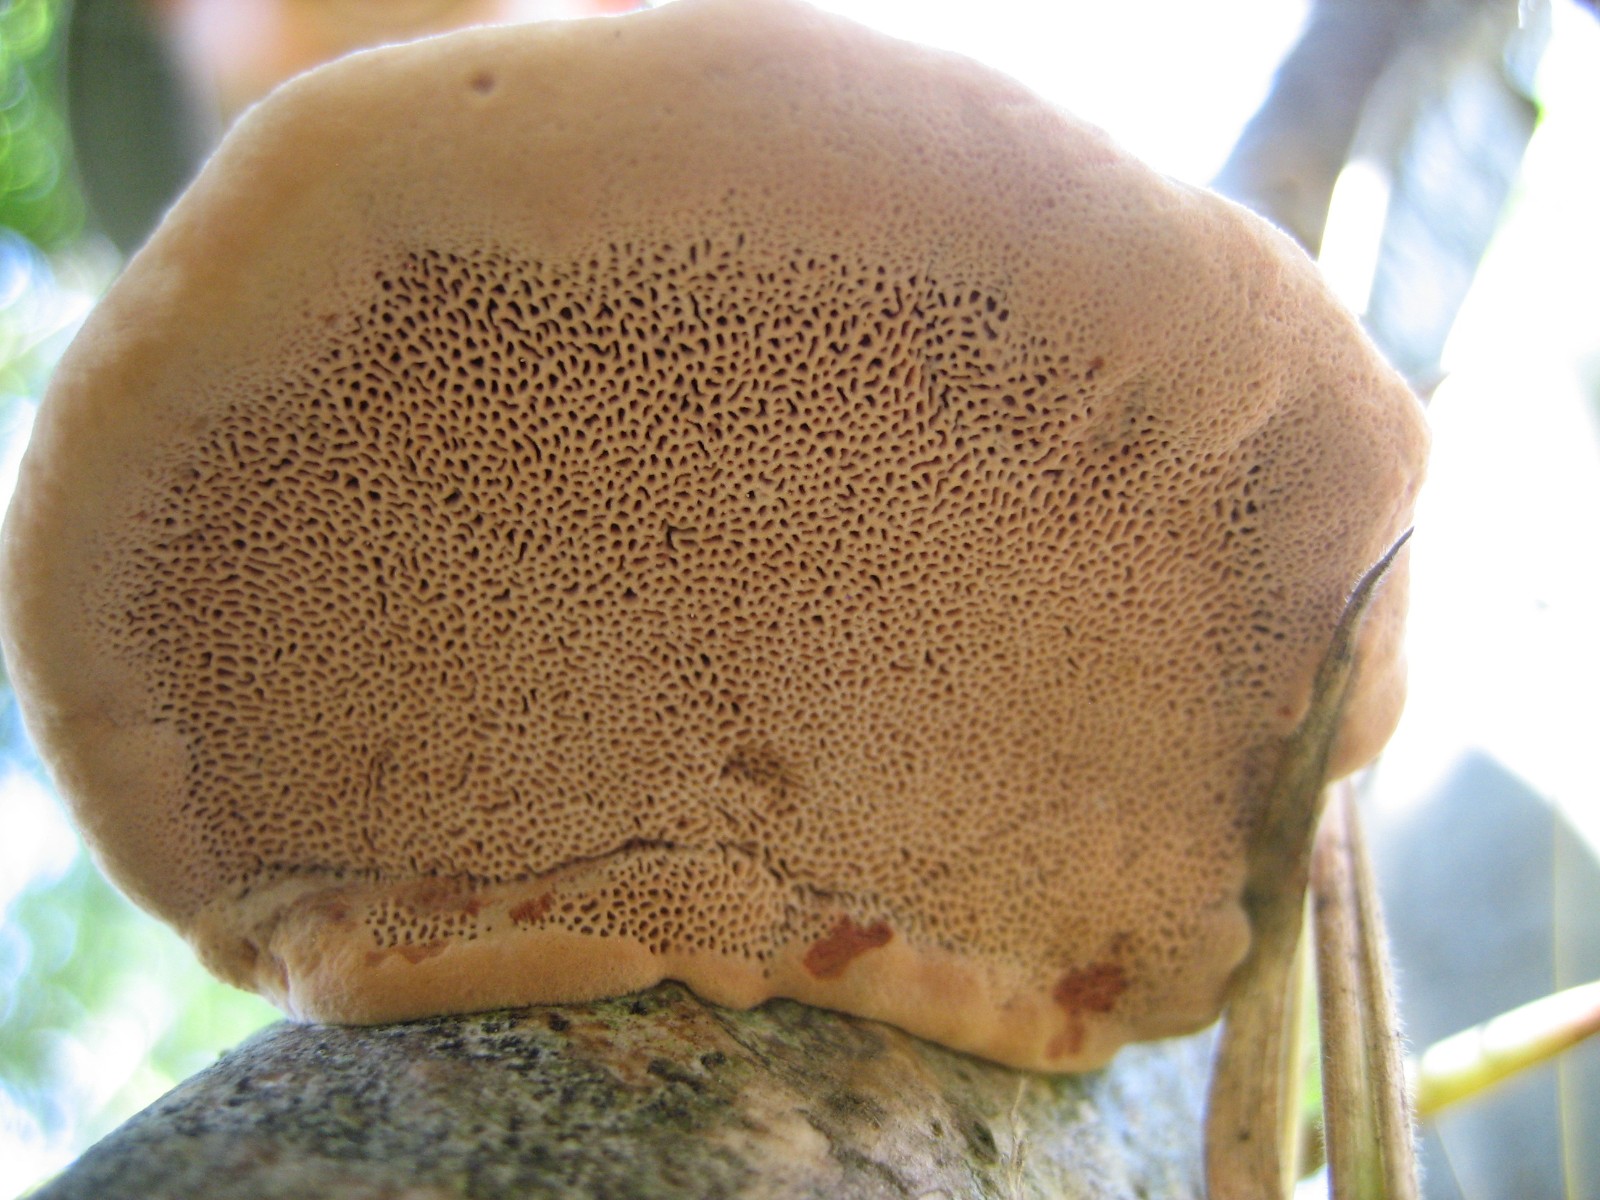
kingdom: Fungi
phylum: Basidiomycota
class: Agaricomycetes
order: Polyporales
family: Phanerochaetaceae
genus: Hapalopilus
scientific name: Hapalopilus rutilans
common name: rødlig okkerporesvamp
